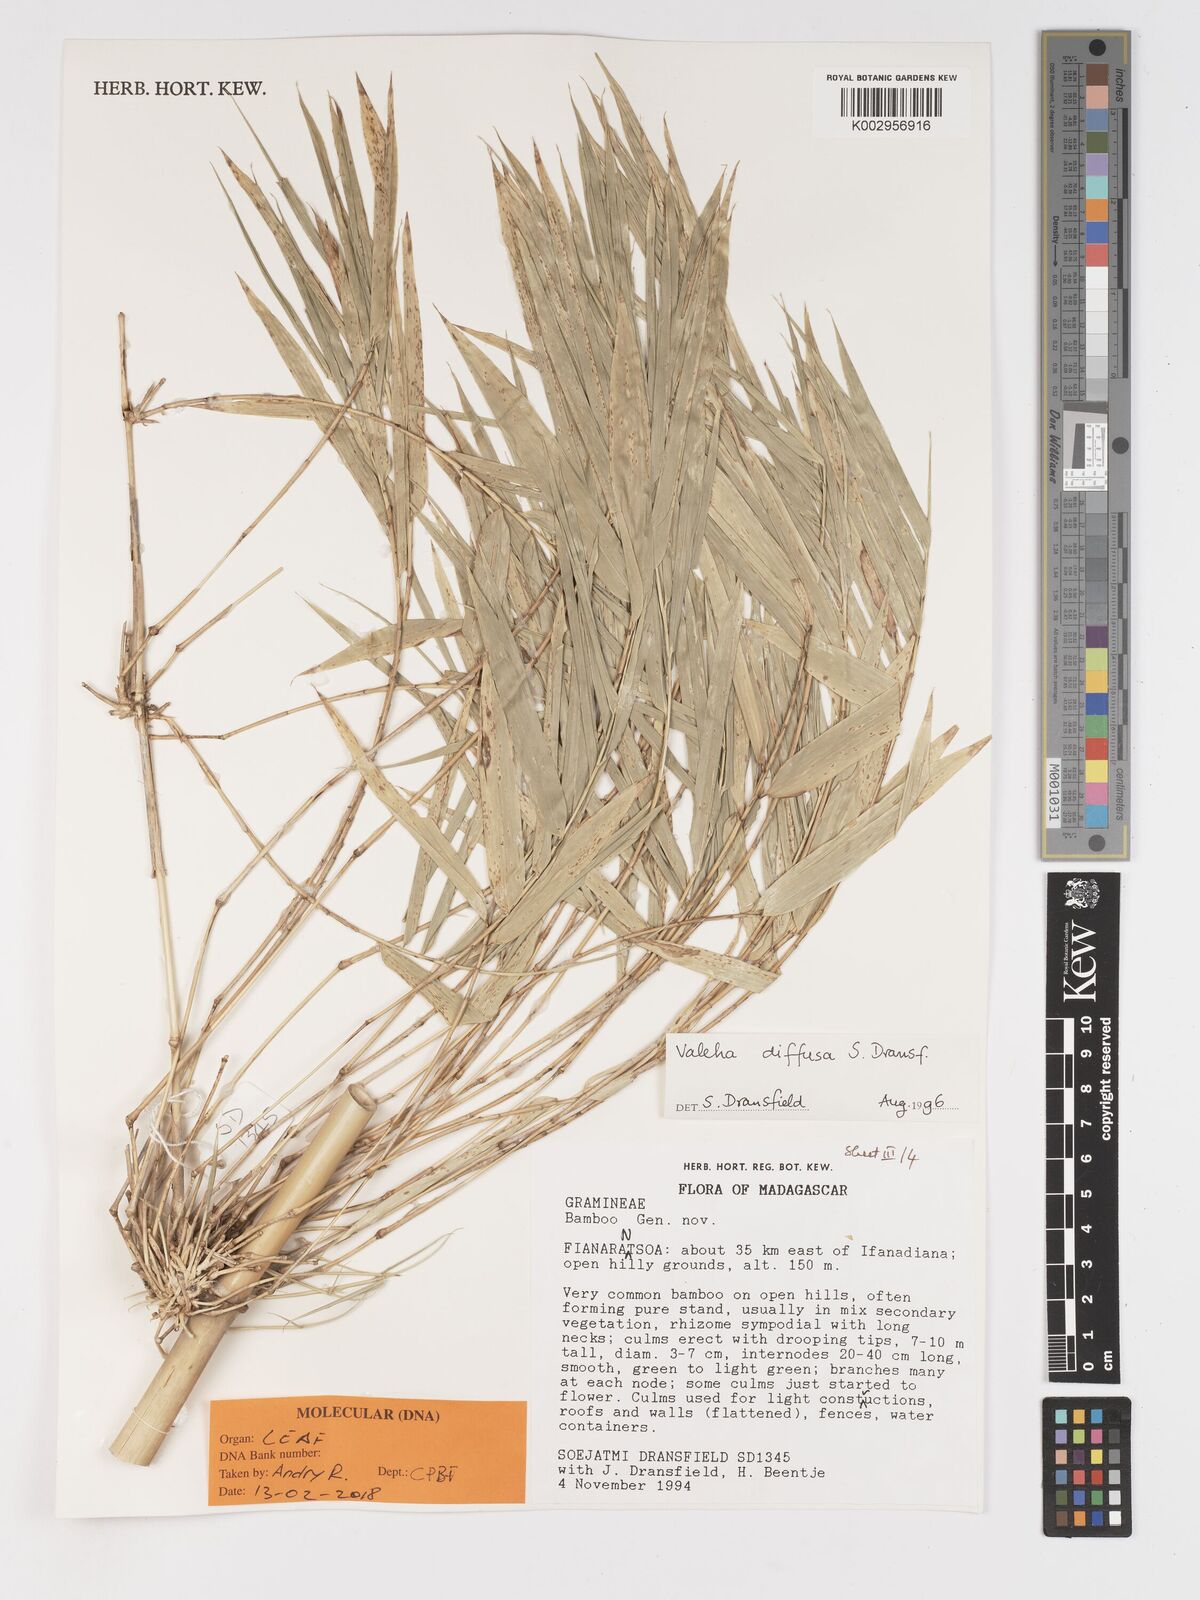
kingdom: Plantae
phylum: Tracheophyta
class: Liliopsida
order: Poales
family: Poaceae
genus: Valiha
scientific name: Valiha diffusa
